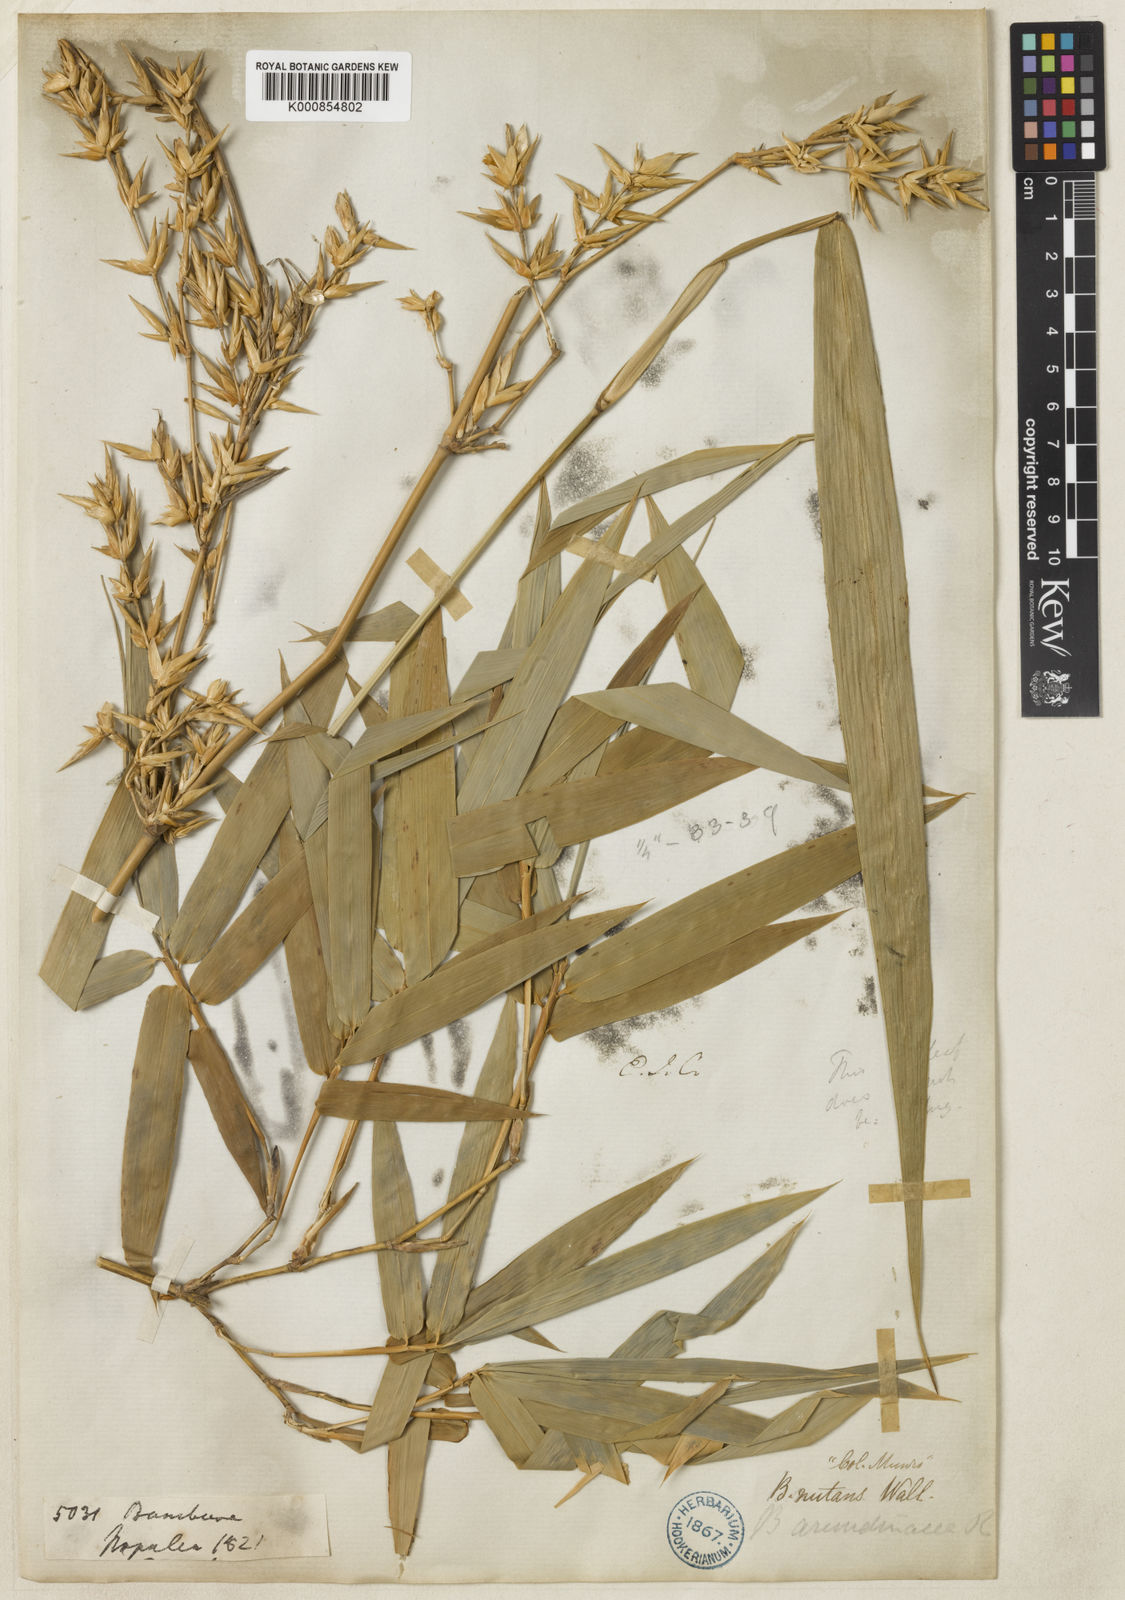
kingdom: Plantae
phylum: Tracheophyta
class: Liliopsida
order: Poales
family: Poaceae
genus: Bambusa
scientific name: Bambusa nutans
